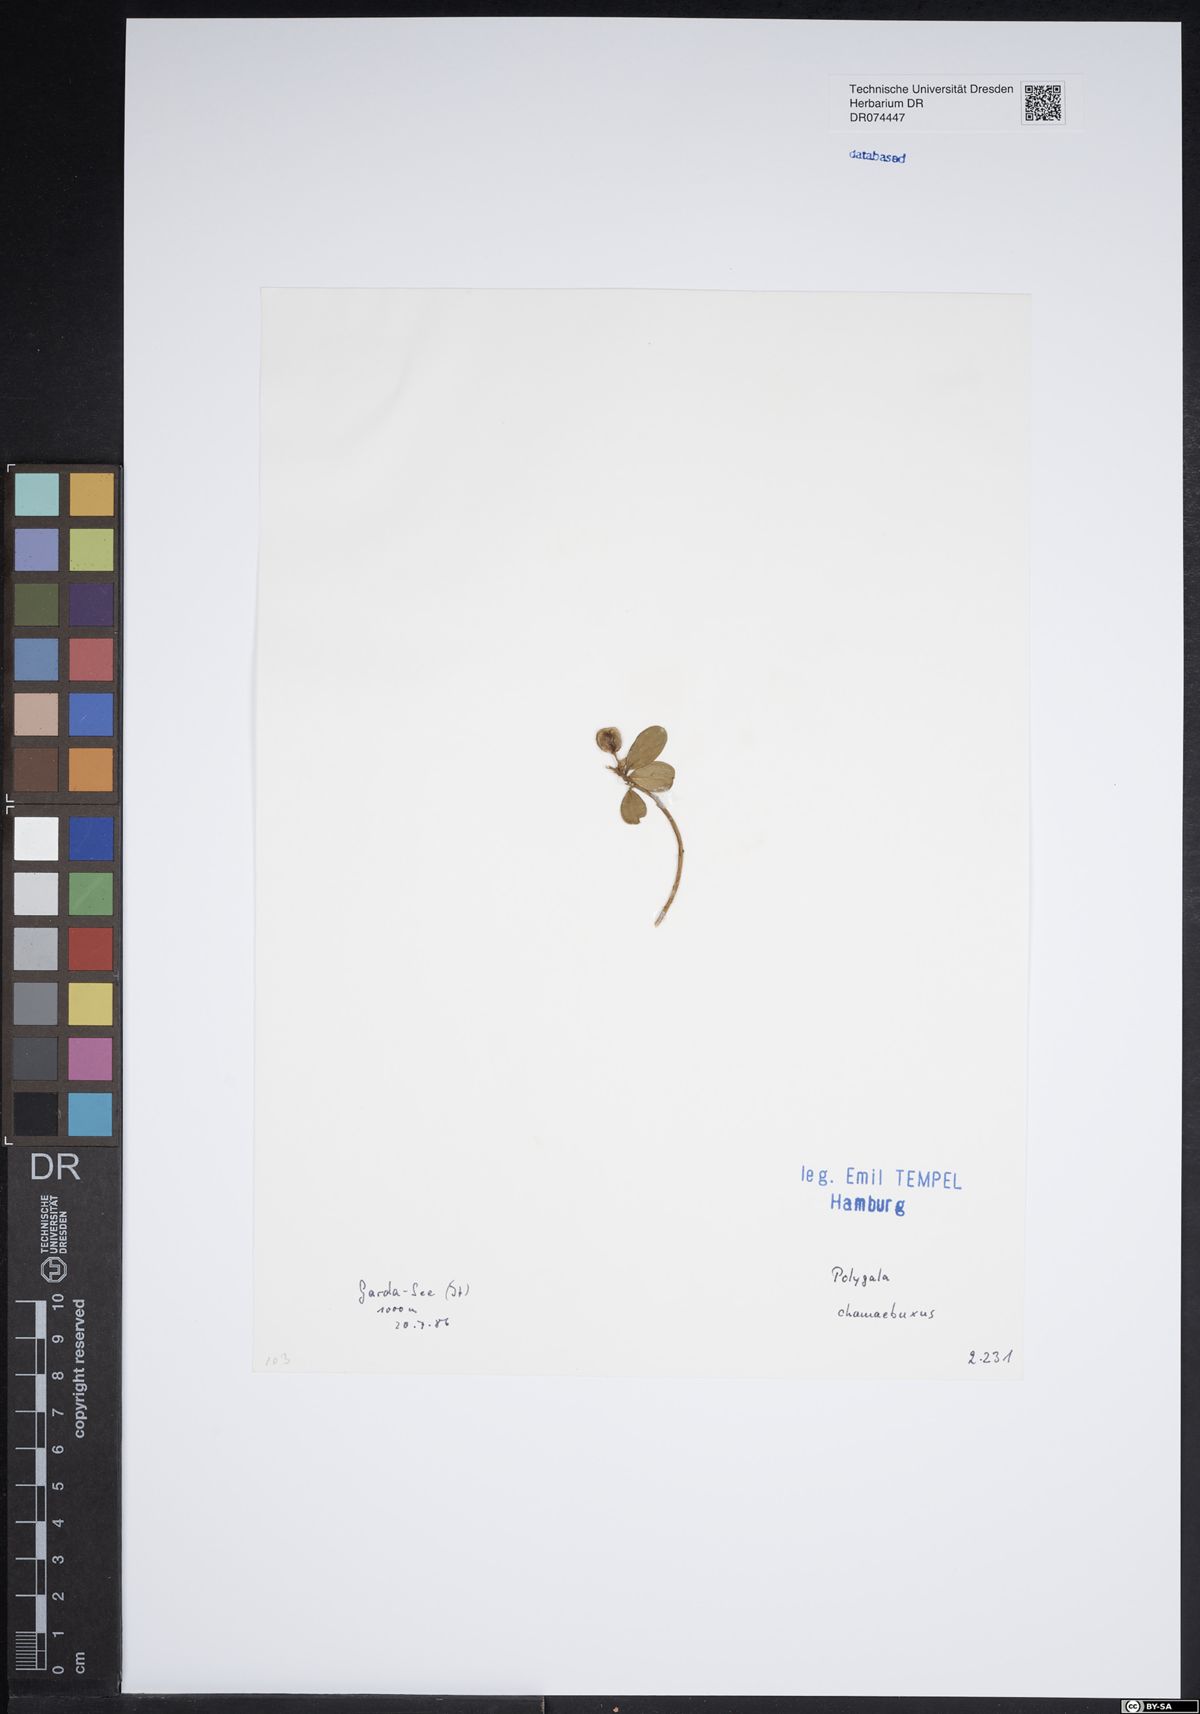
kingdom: Plantae
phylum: Tracheophyta
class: Magnoliopsida
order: Fabales
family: Polygalaceae
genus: Polygaloides
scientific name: Polygaloides chamaebuxus
